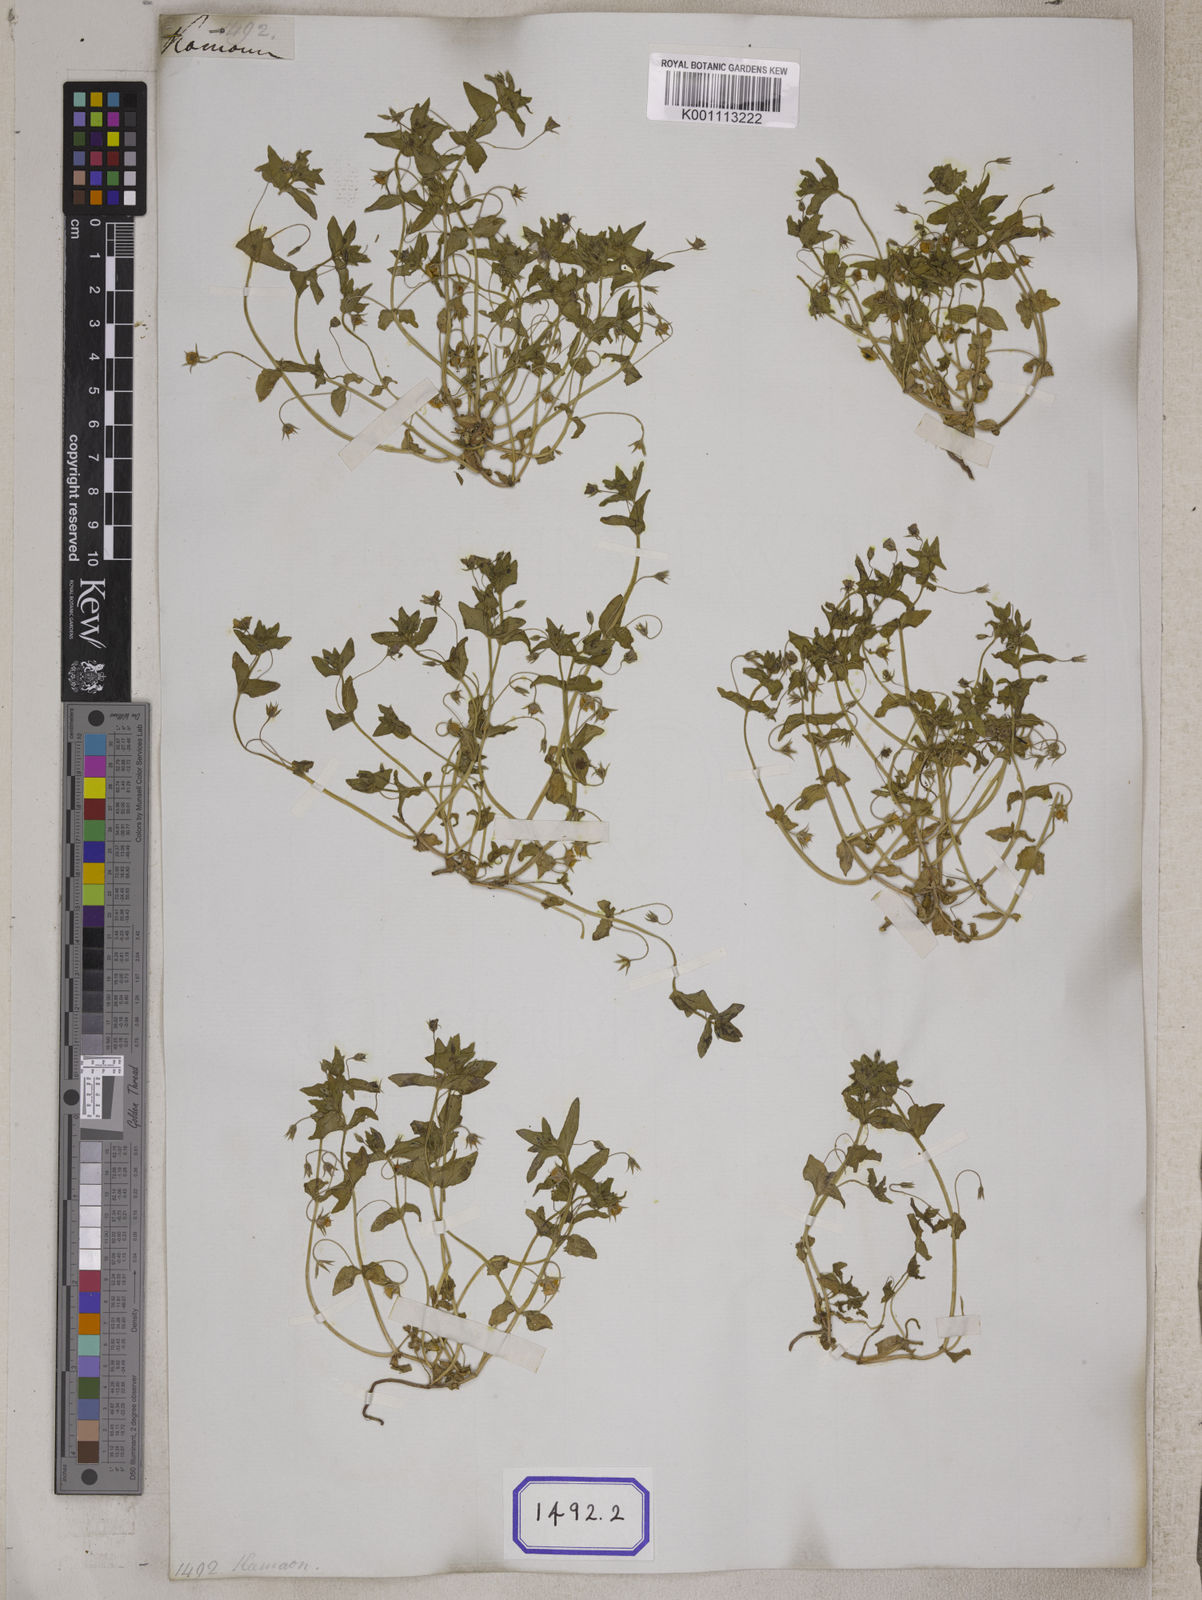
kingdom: Plantae
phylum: Tracheophyta
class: Magnoliopsida
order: Ericales
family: Primulaceae
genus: Lysimachia
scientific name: Lysimachia arvensis
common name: Scarlet pimpernel
